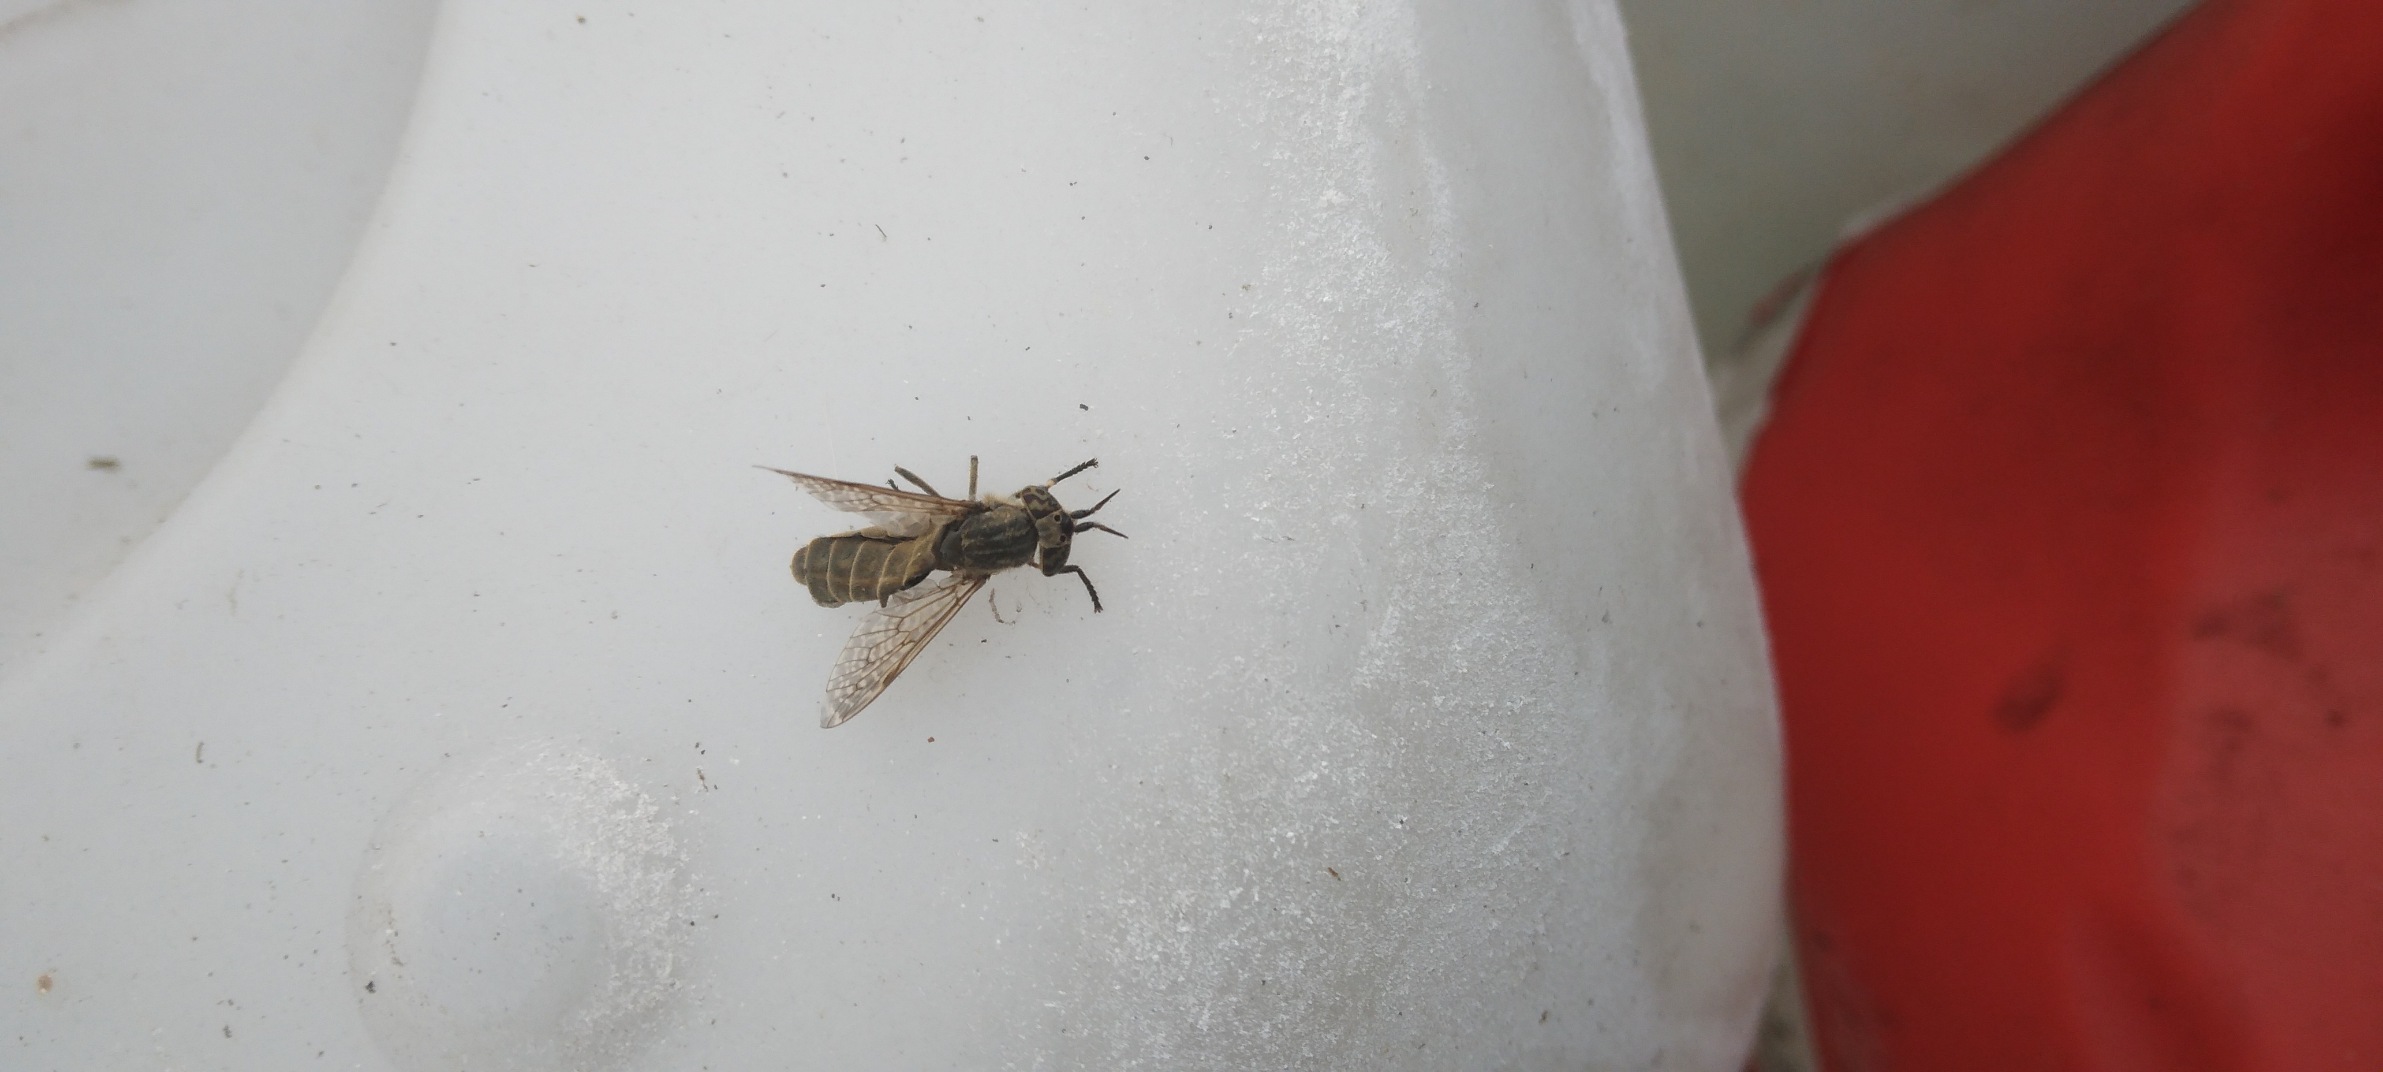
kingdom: Animalia
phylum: Arthropoda
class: Insecta
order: Diptera
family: Tabanidae
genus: Haematopota
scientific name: Haematopota pluvialis
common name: Regnklæg
